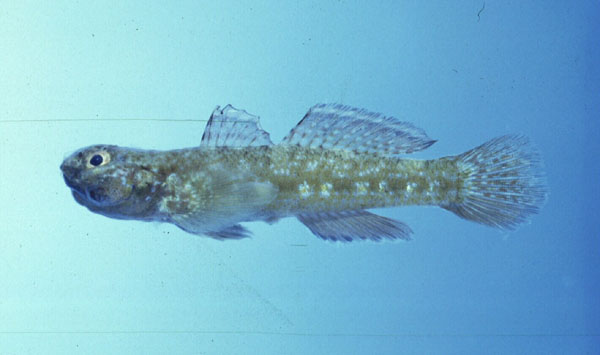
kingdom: Animalia
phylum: Chordata
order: Perciformes
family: Gobiidae
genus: Bathygobius
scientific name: Bathygobius cocosensis
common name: Cocos frillgoby
